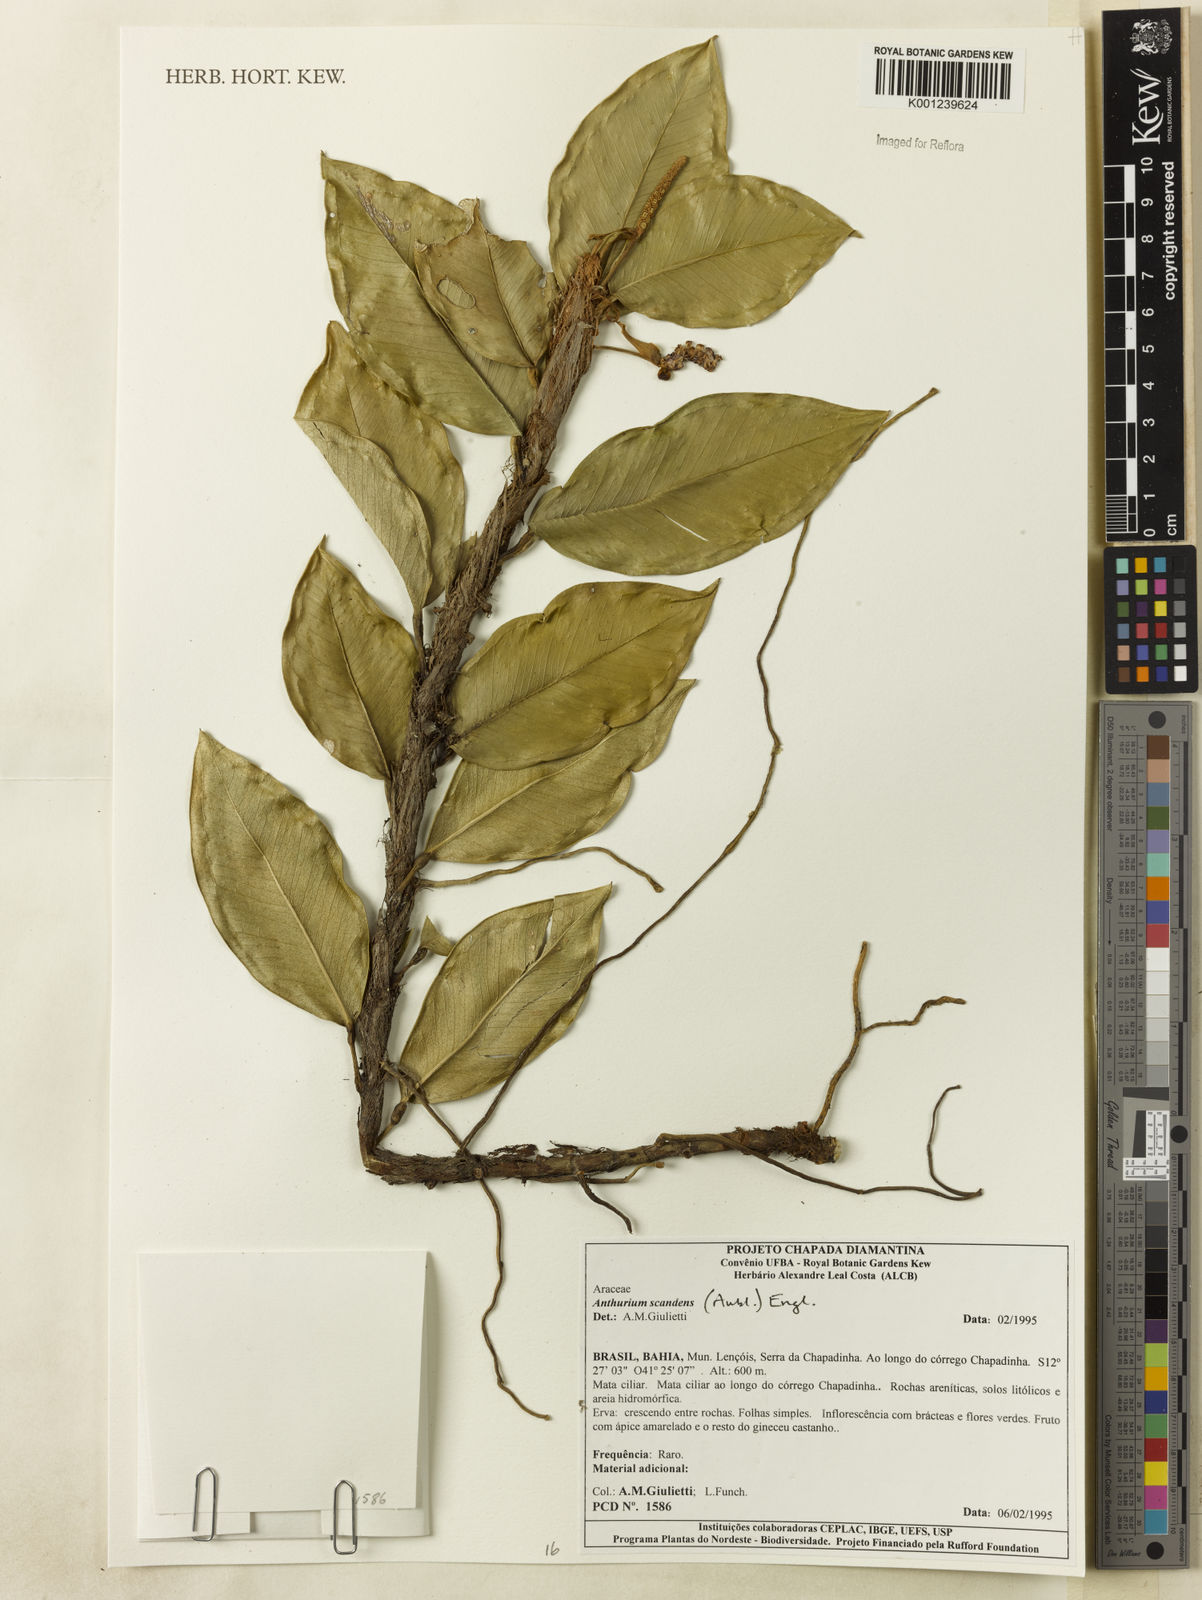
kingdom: Plantae
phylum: Tracheophyta
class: Liliopsida
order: Alismatales
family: Araceae
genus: Anthurium
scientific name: Anthurium scandens
